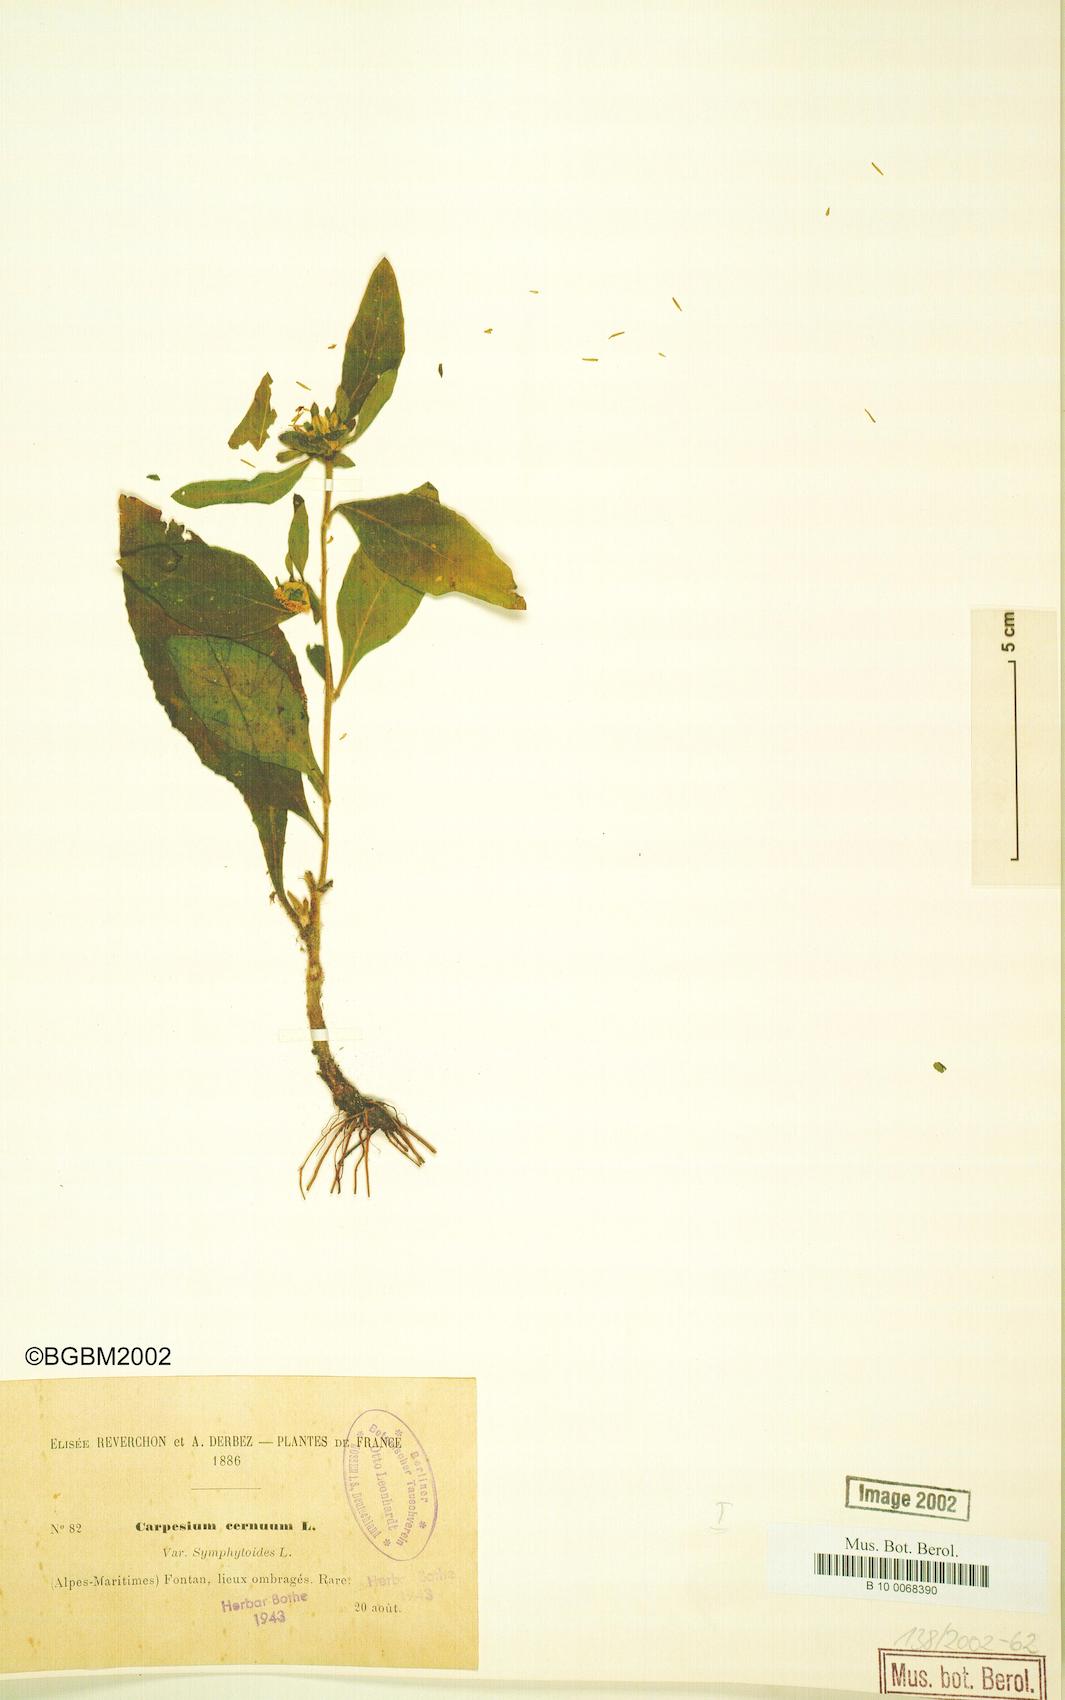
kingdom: Plantae
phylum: Tracheophyta
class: Magnoliopsida
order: Asterales
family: Asteraceae
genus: Carpesium
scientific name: Carpesium cernuum
